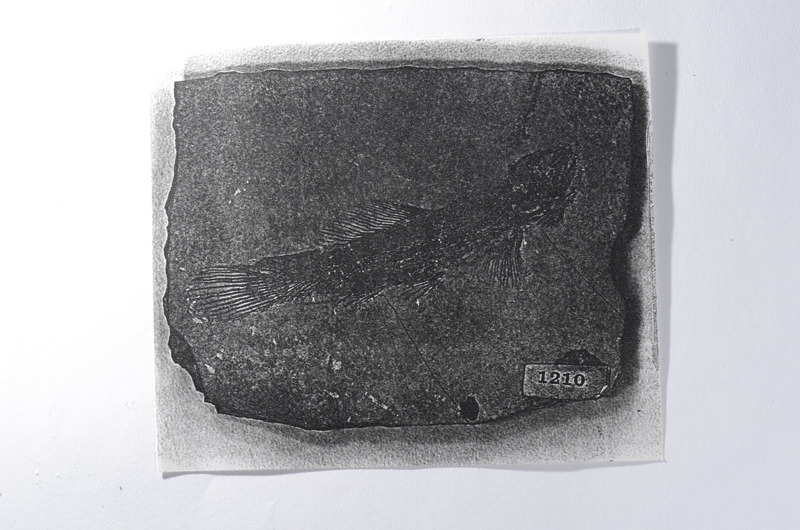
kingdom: Animalia
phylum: Chordata
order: Amiiformes
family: Amiidae
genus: Solnhofenamia
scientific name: Solnhofenamia elongata
